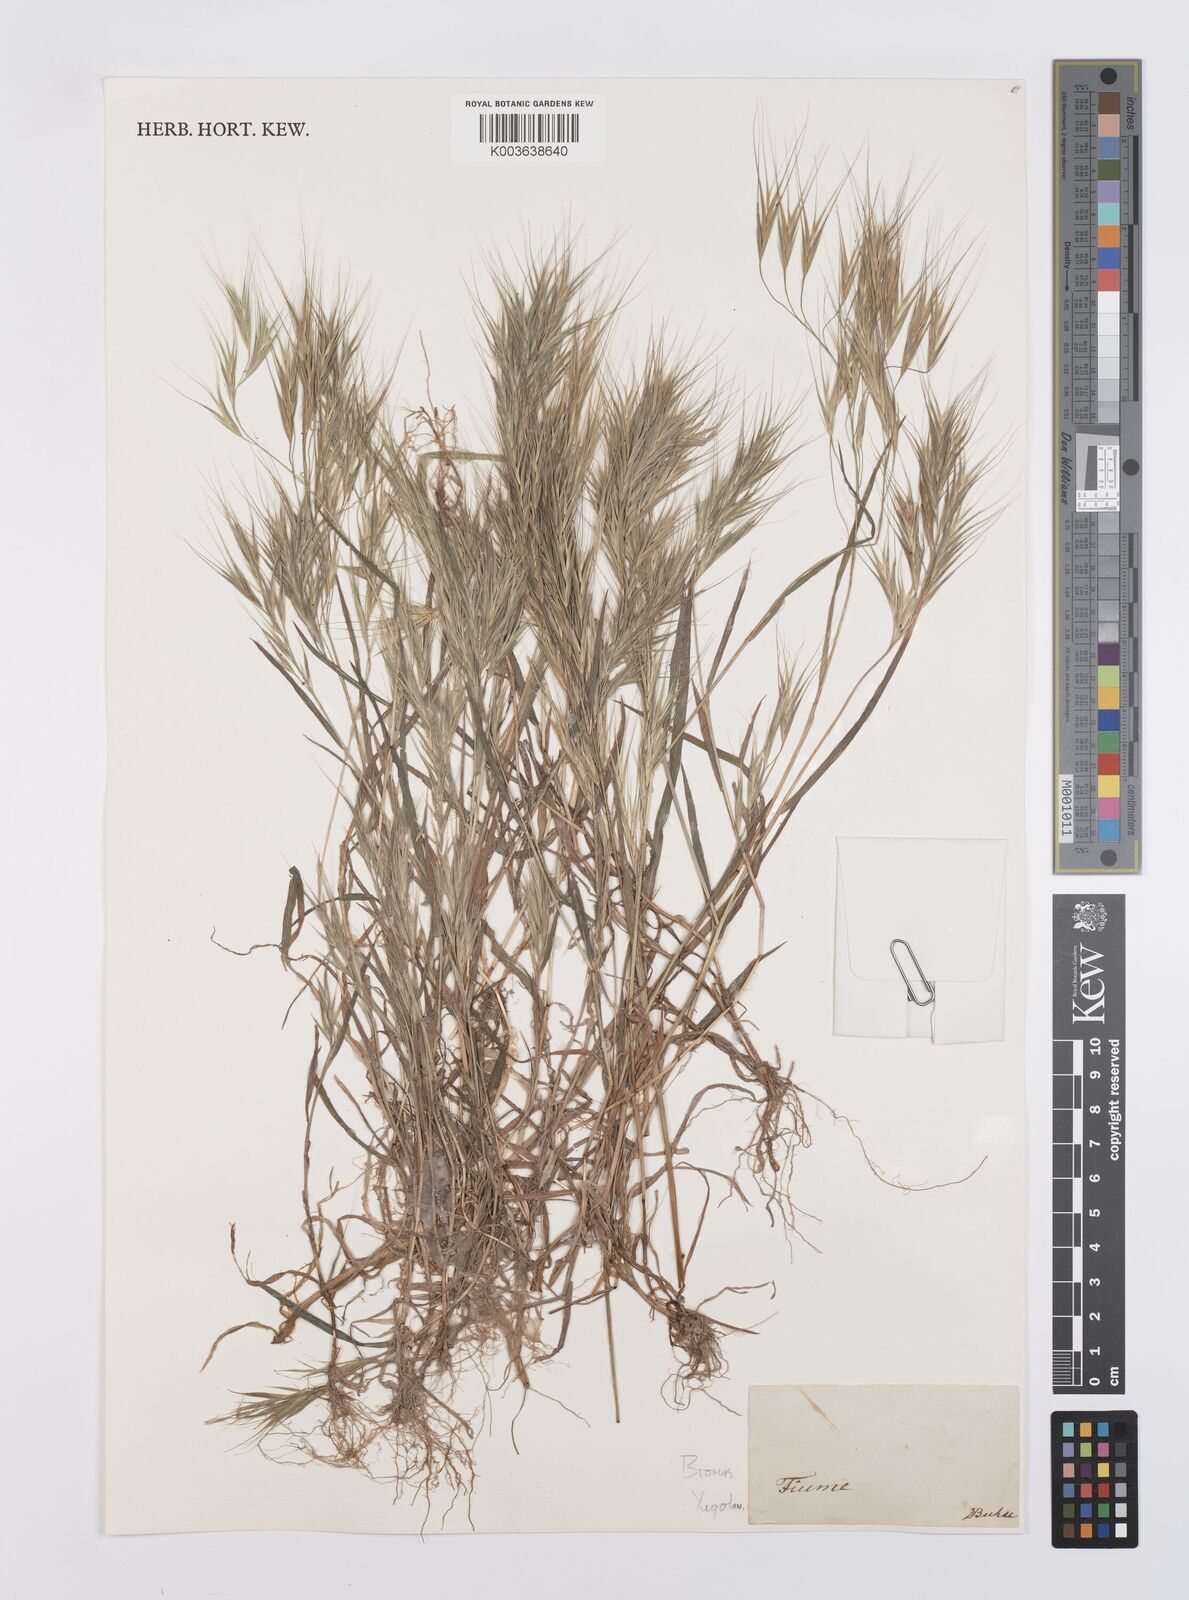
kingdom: Plantae
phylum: Tracheophyta
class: Liliopsida
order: Poales
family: Poaceae
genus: Bromus
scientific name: Bromus madritensis
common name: Compact brome
